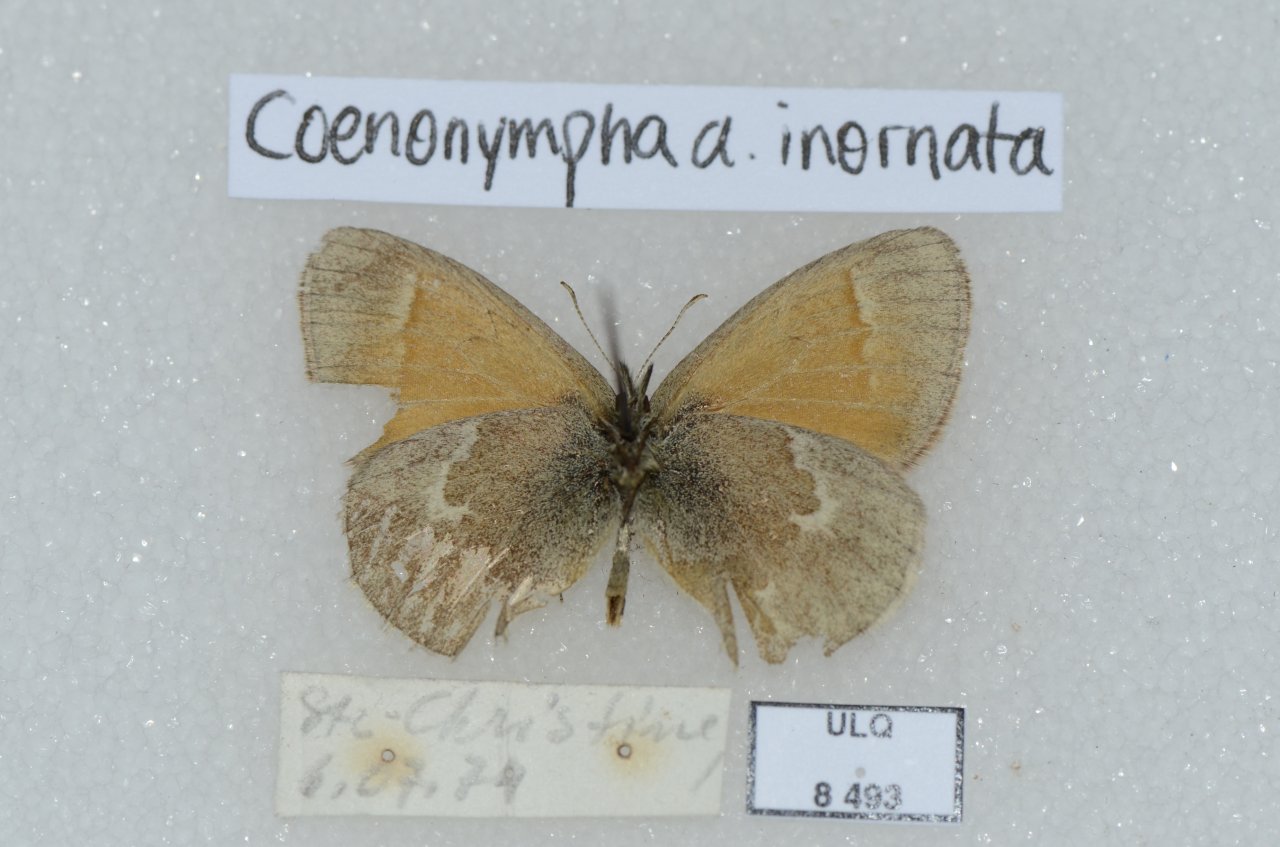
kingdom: Animalia
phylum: Arthropoda
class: Insecta
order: Lepidoptera
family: Nymphalidae
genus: Coenonympha
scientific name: Coenonympha tullia
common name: Large Heath
